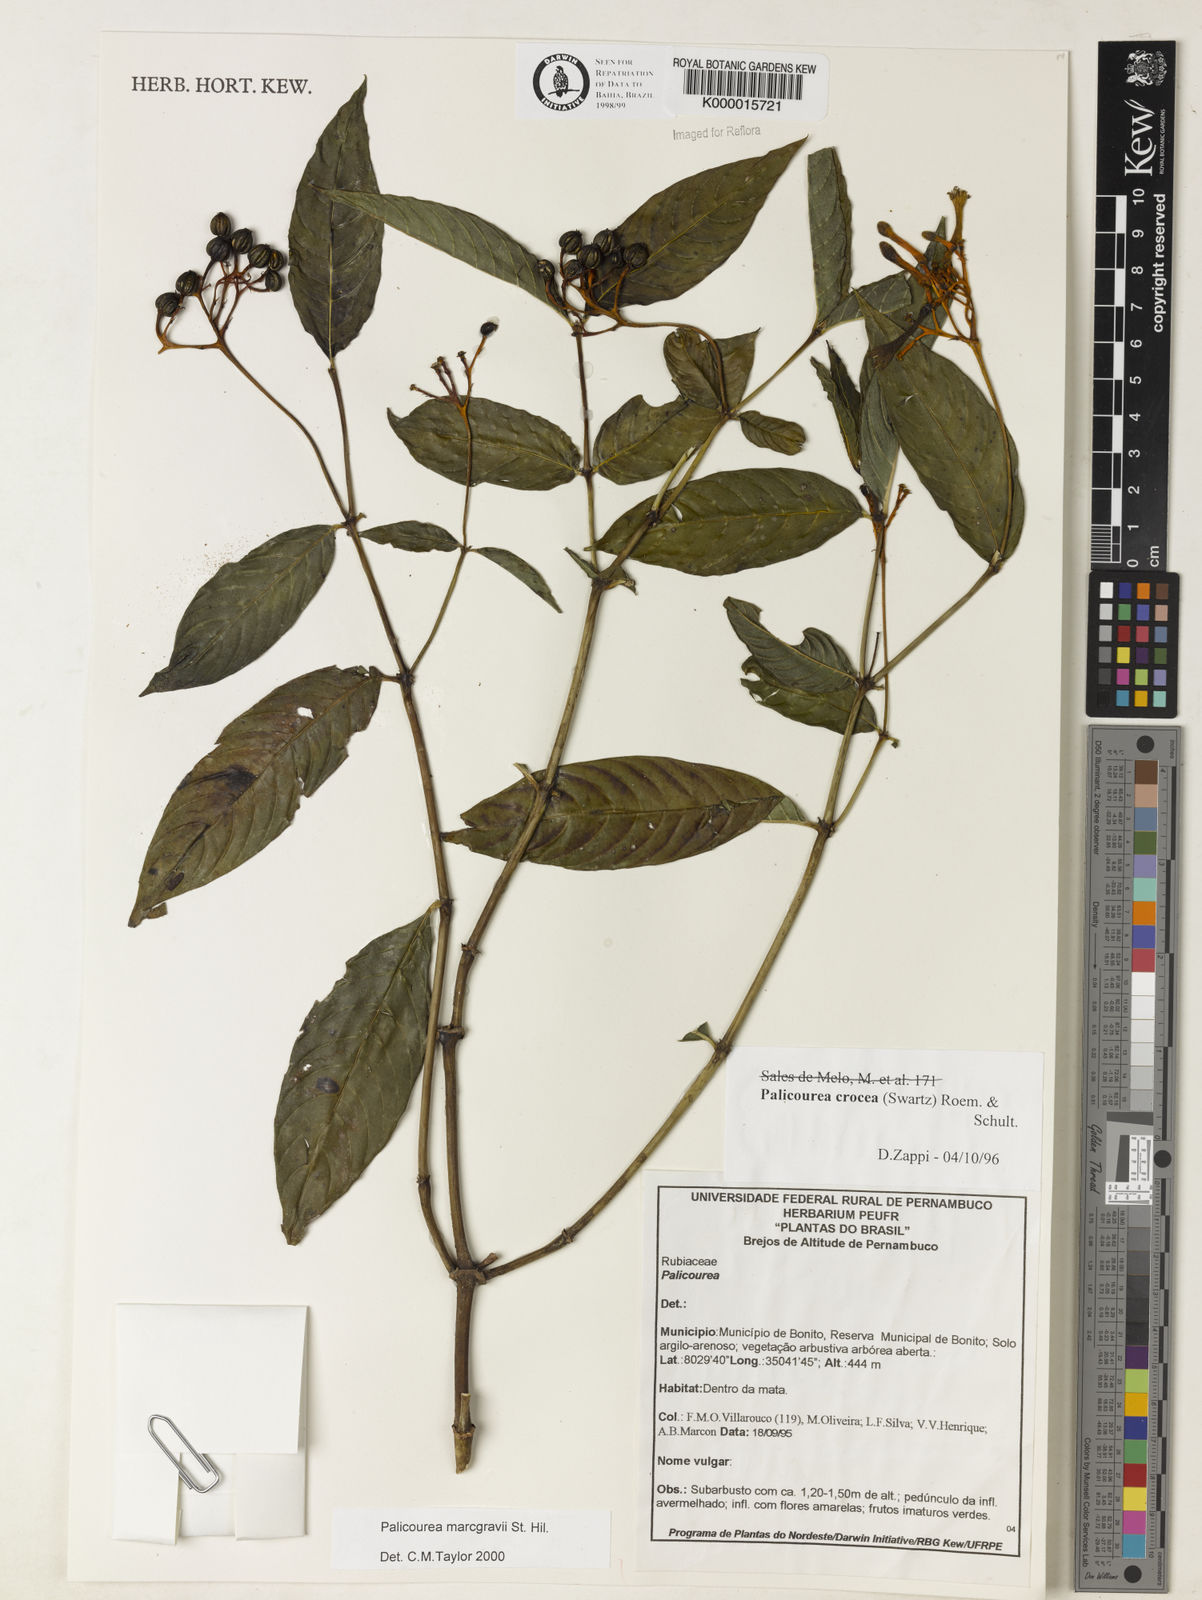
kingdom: Plantae
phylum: Tracheophyta
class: Magnoliopsida
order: Gentianales
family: Rubiaceae
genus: Palicourea
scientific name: Palicourea marcgravii
